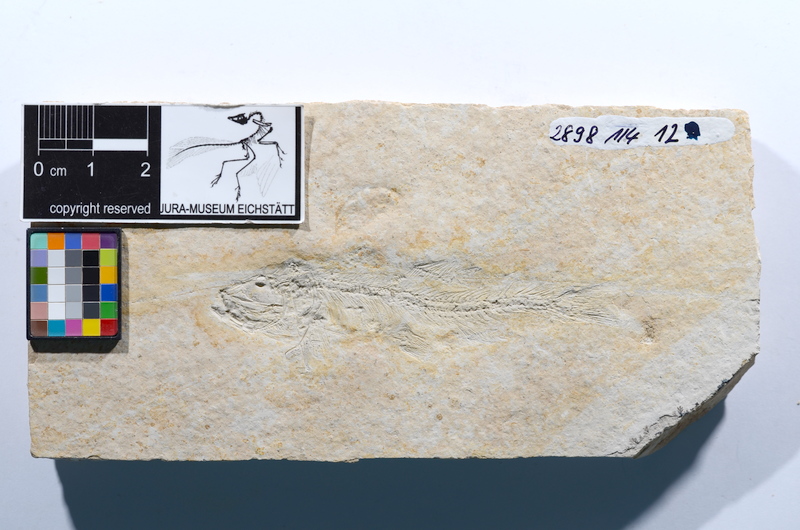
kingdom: Animalia
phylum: Chordata
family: Ascalaboidae
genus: Tharsis
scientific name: Tharsis dubius
